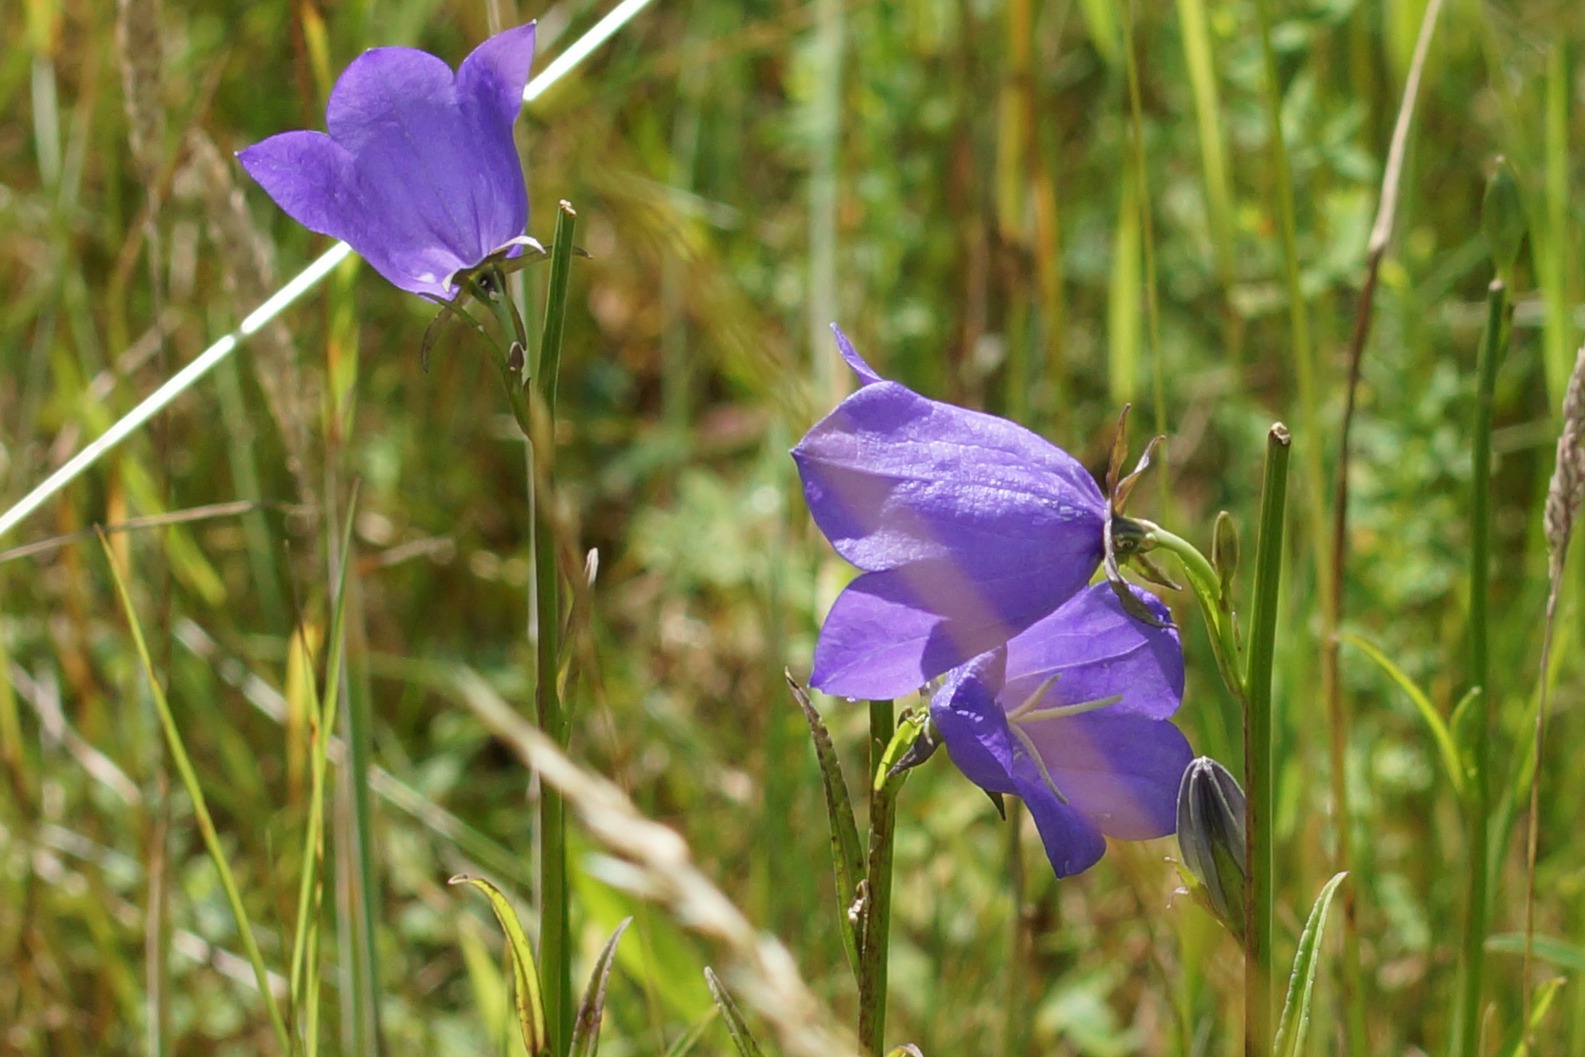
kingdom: Plantae
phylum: Tracheophyta
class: Magnoliopsida
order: Asterales
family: Campanulaceae
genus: Campanula
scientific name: Campanula persicifolia
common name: Smalbladet klokke
